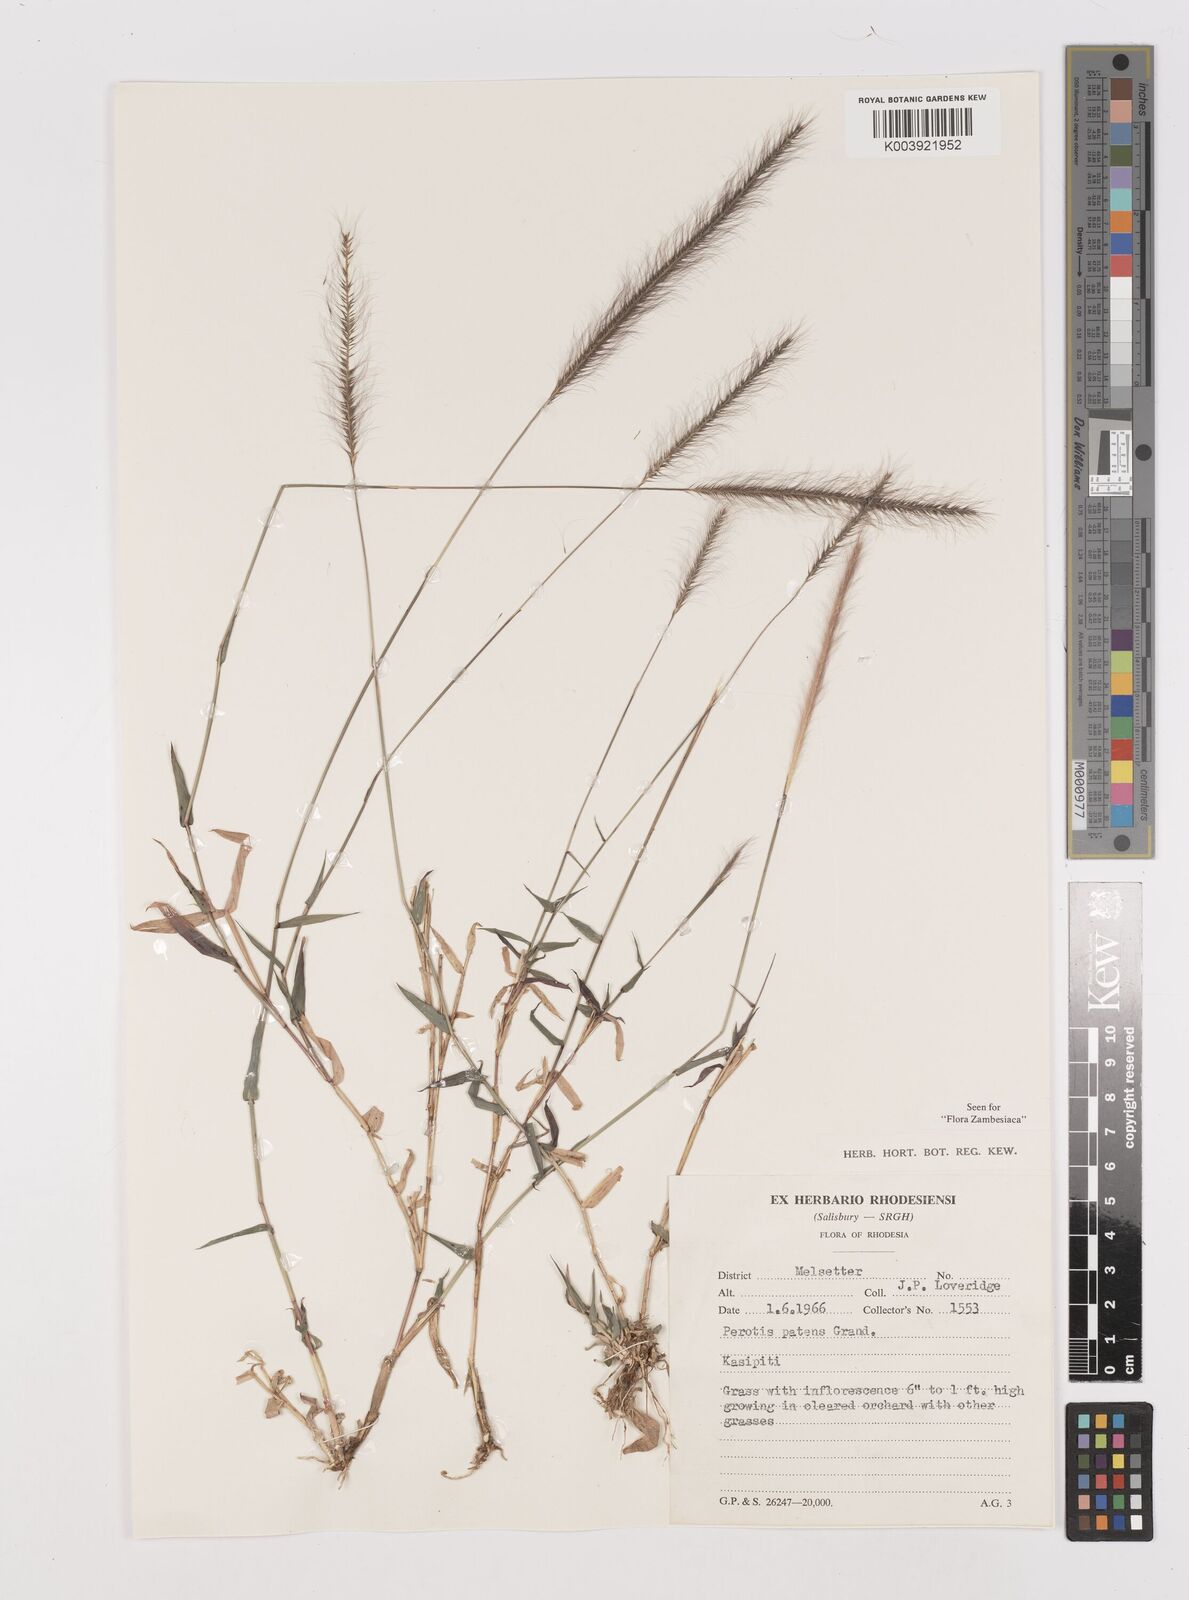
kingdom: Plantae
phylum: Tracheophyta
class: Liliopsida
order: Poales
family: Poaceae
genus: Perotis
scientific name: Perotis patens
